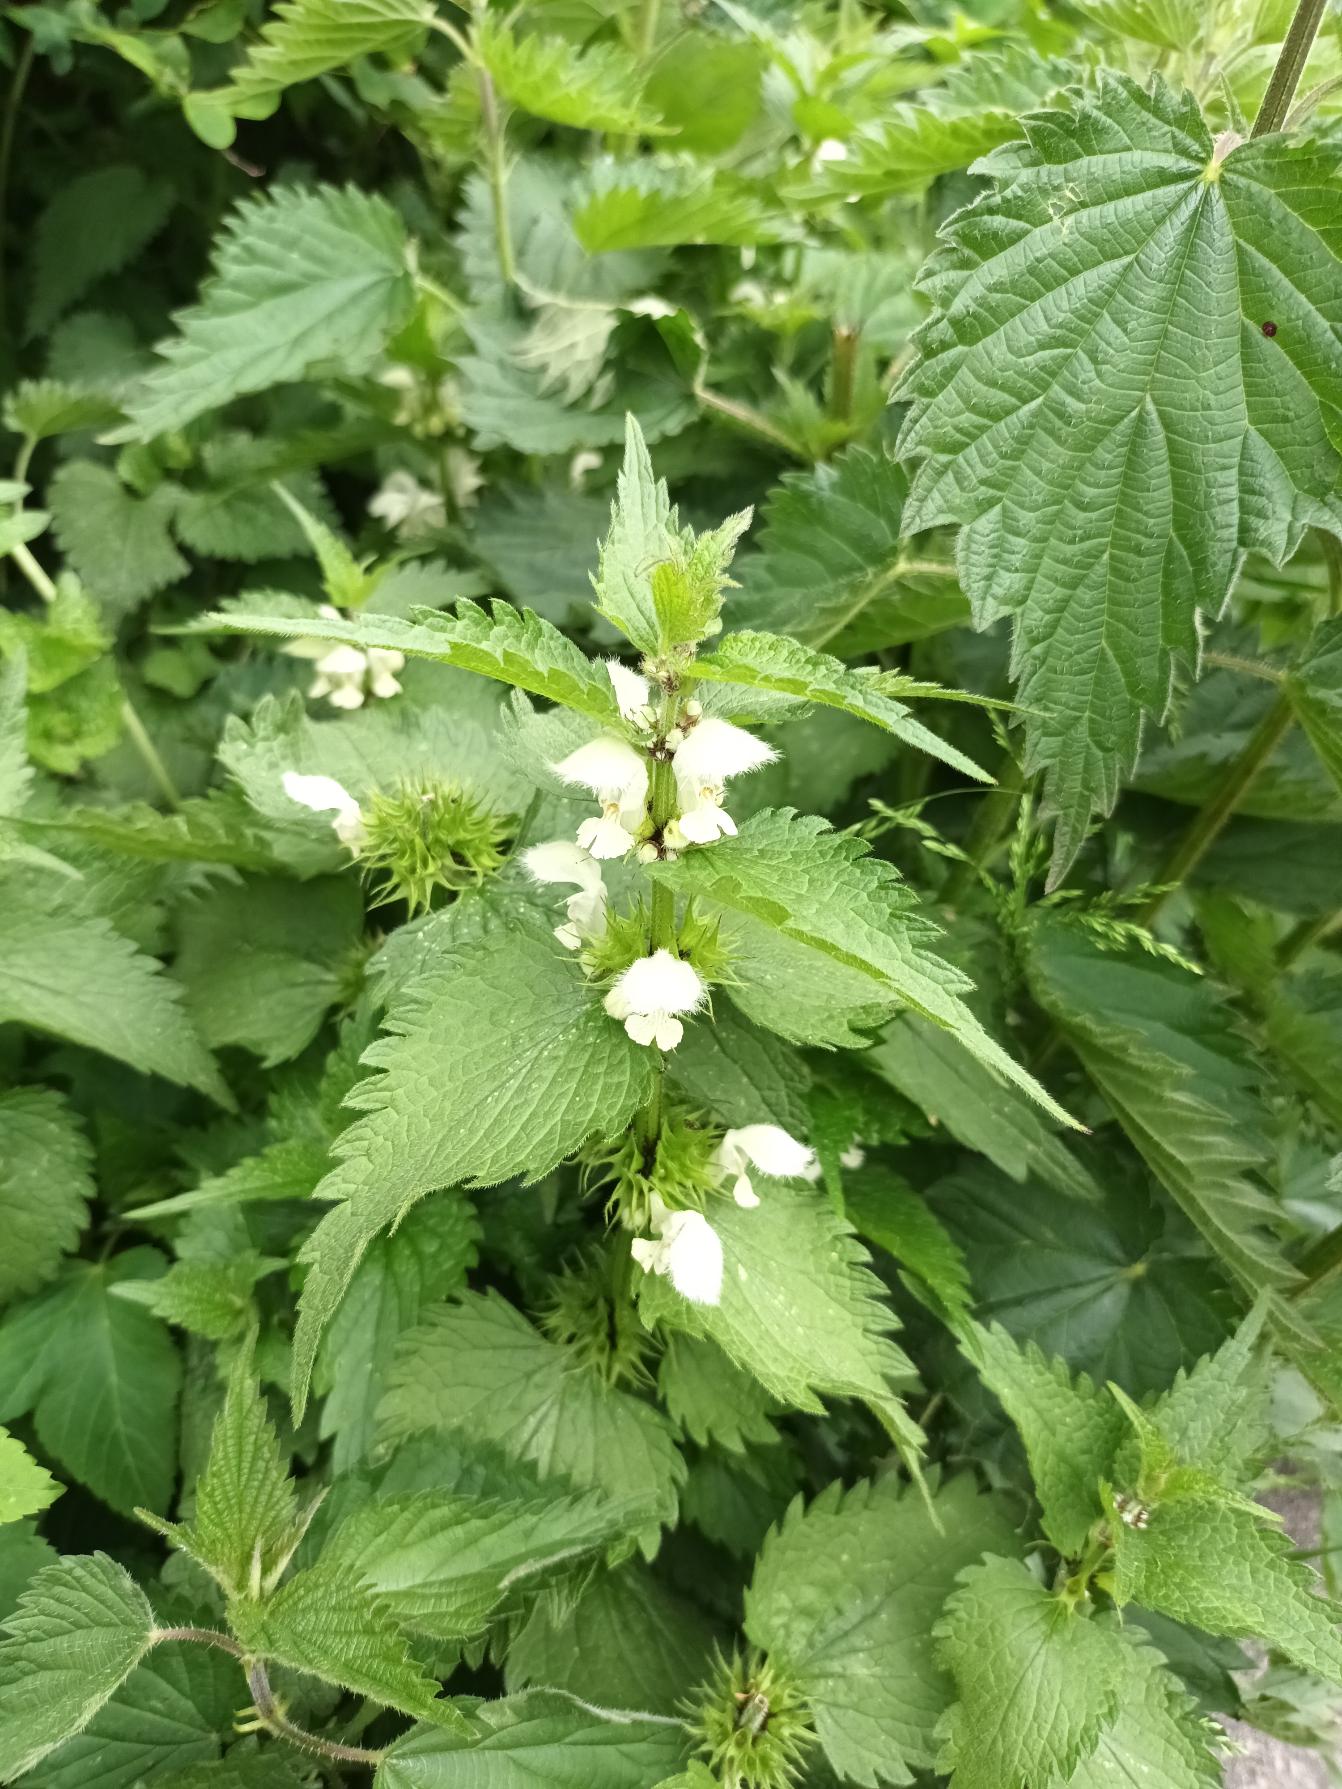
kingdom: Plantae
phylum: Tracheophyta
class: Magnoliopsida
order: Lamiales
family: Lamiaceae
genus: Lamium
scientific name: Lamium album
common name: Døvnælde
